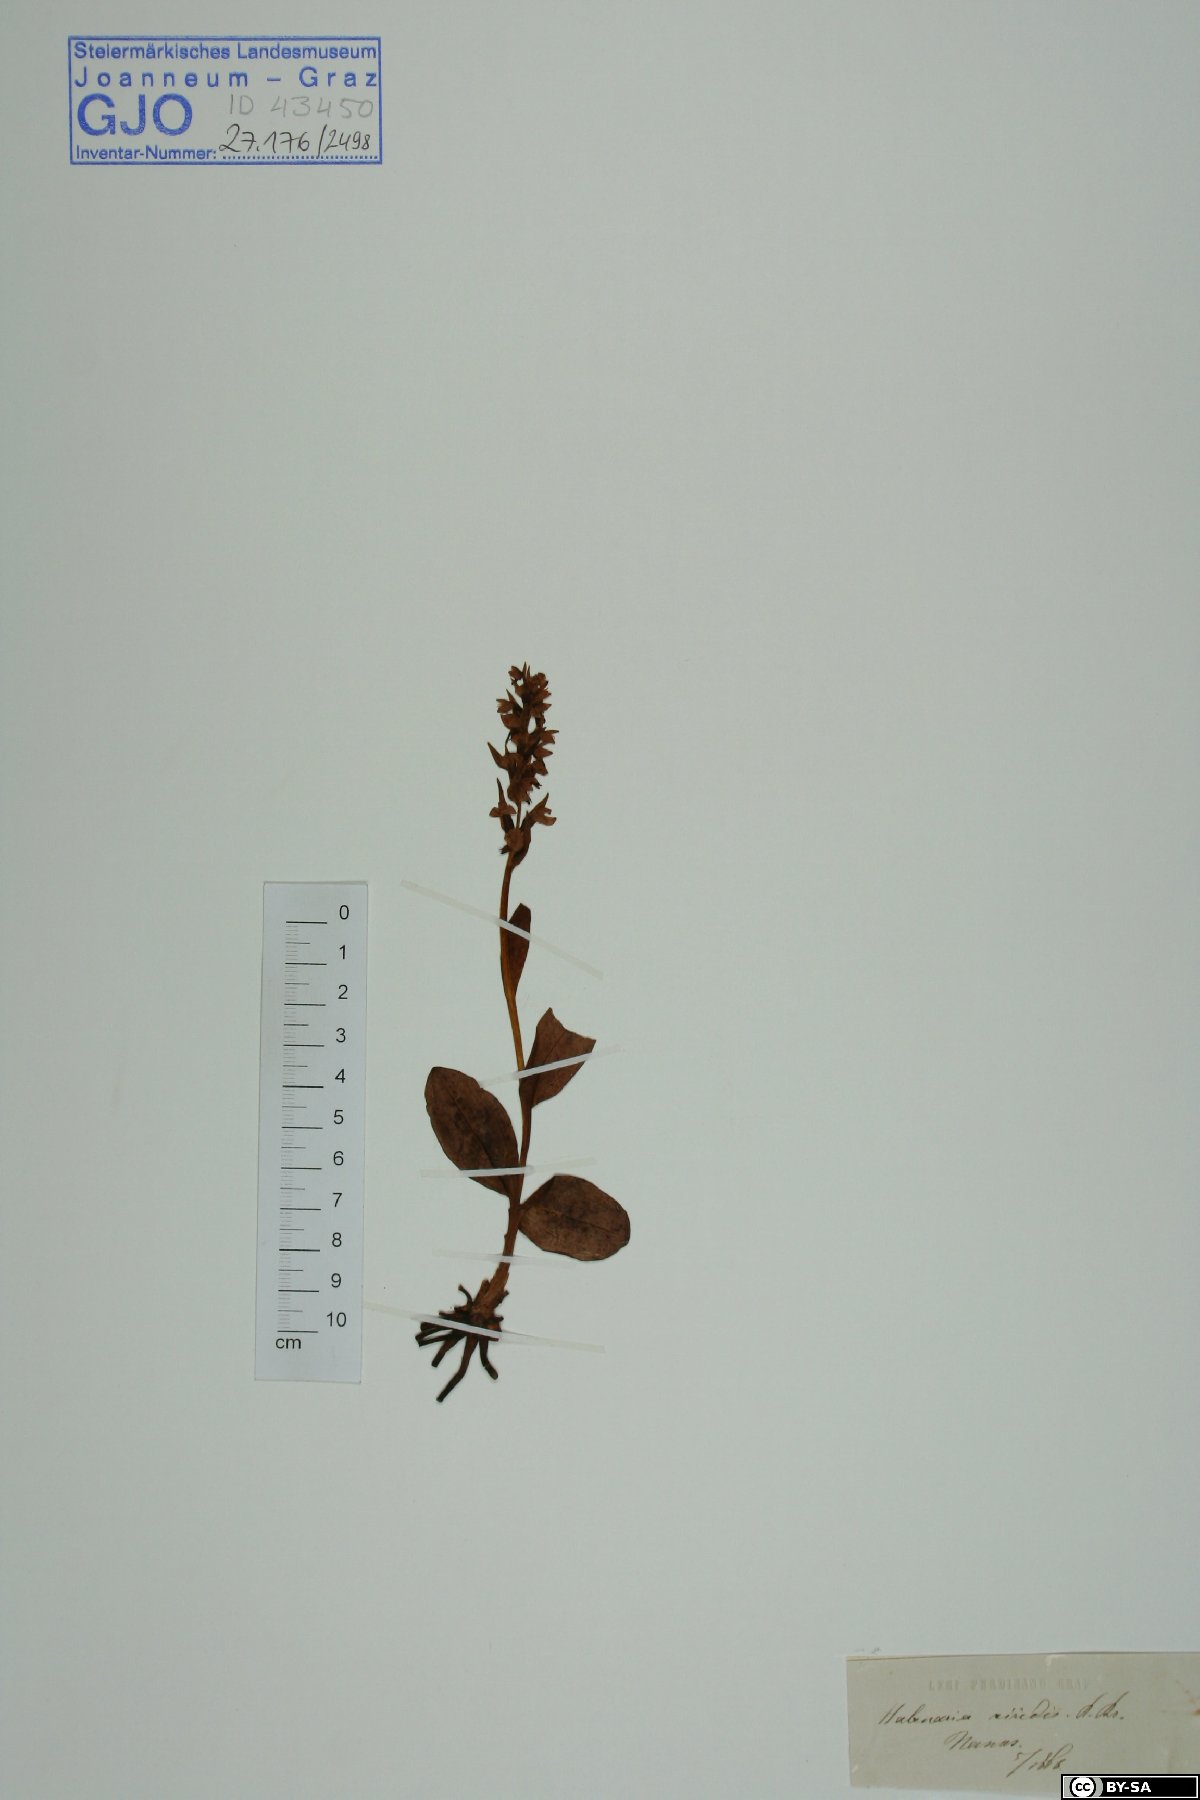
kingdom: Plantae
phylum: Tracheophyta
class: Liliopsida
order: Asparagales
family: Orchidaceae
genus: Dactylorhiza
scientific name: Dactylorhiza viridis
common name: Longbract frog orchid
